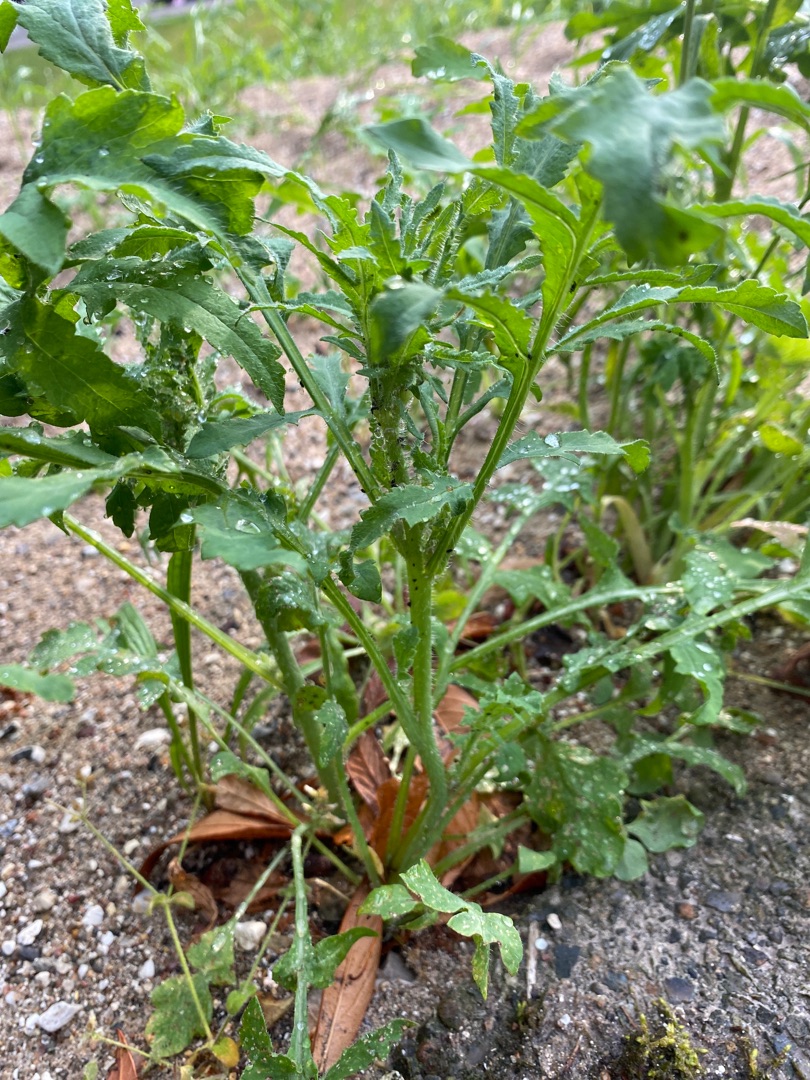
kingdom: Plantae
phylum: Tracheophyta
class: Magnoliopsida
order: Ranunculales
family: Papaveraceae
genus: Papaver
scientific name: Papaver rhoeas
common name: Korn-valmue
